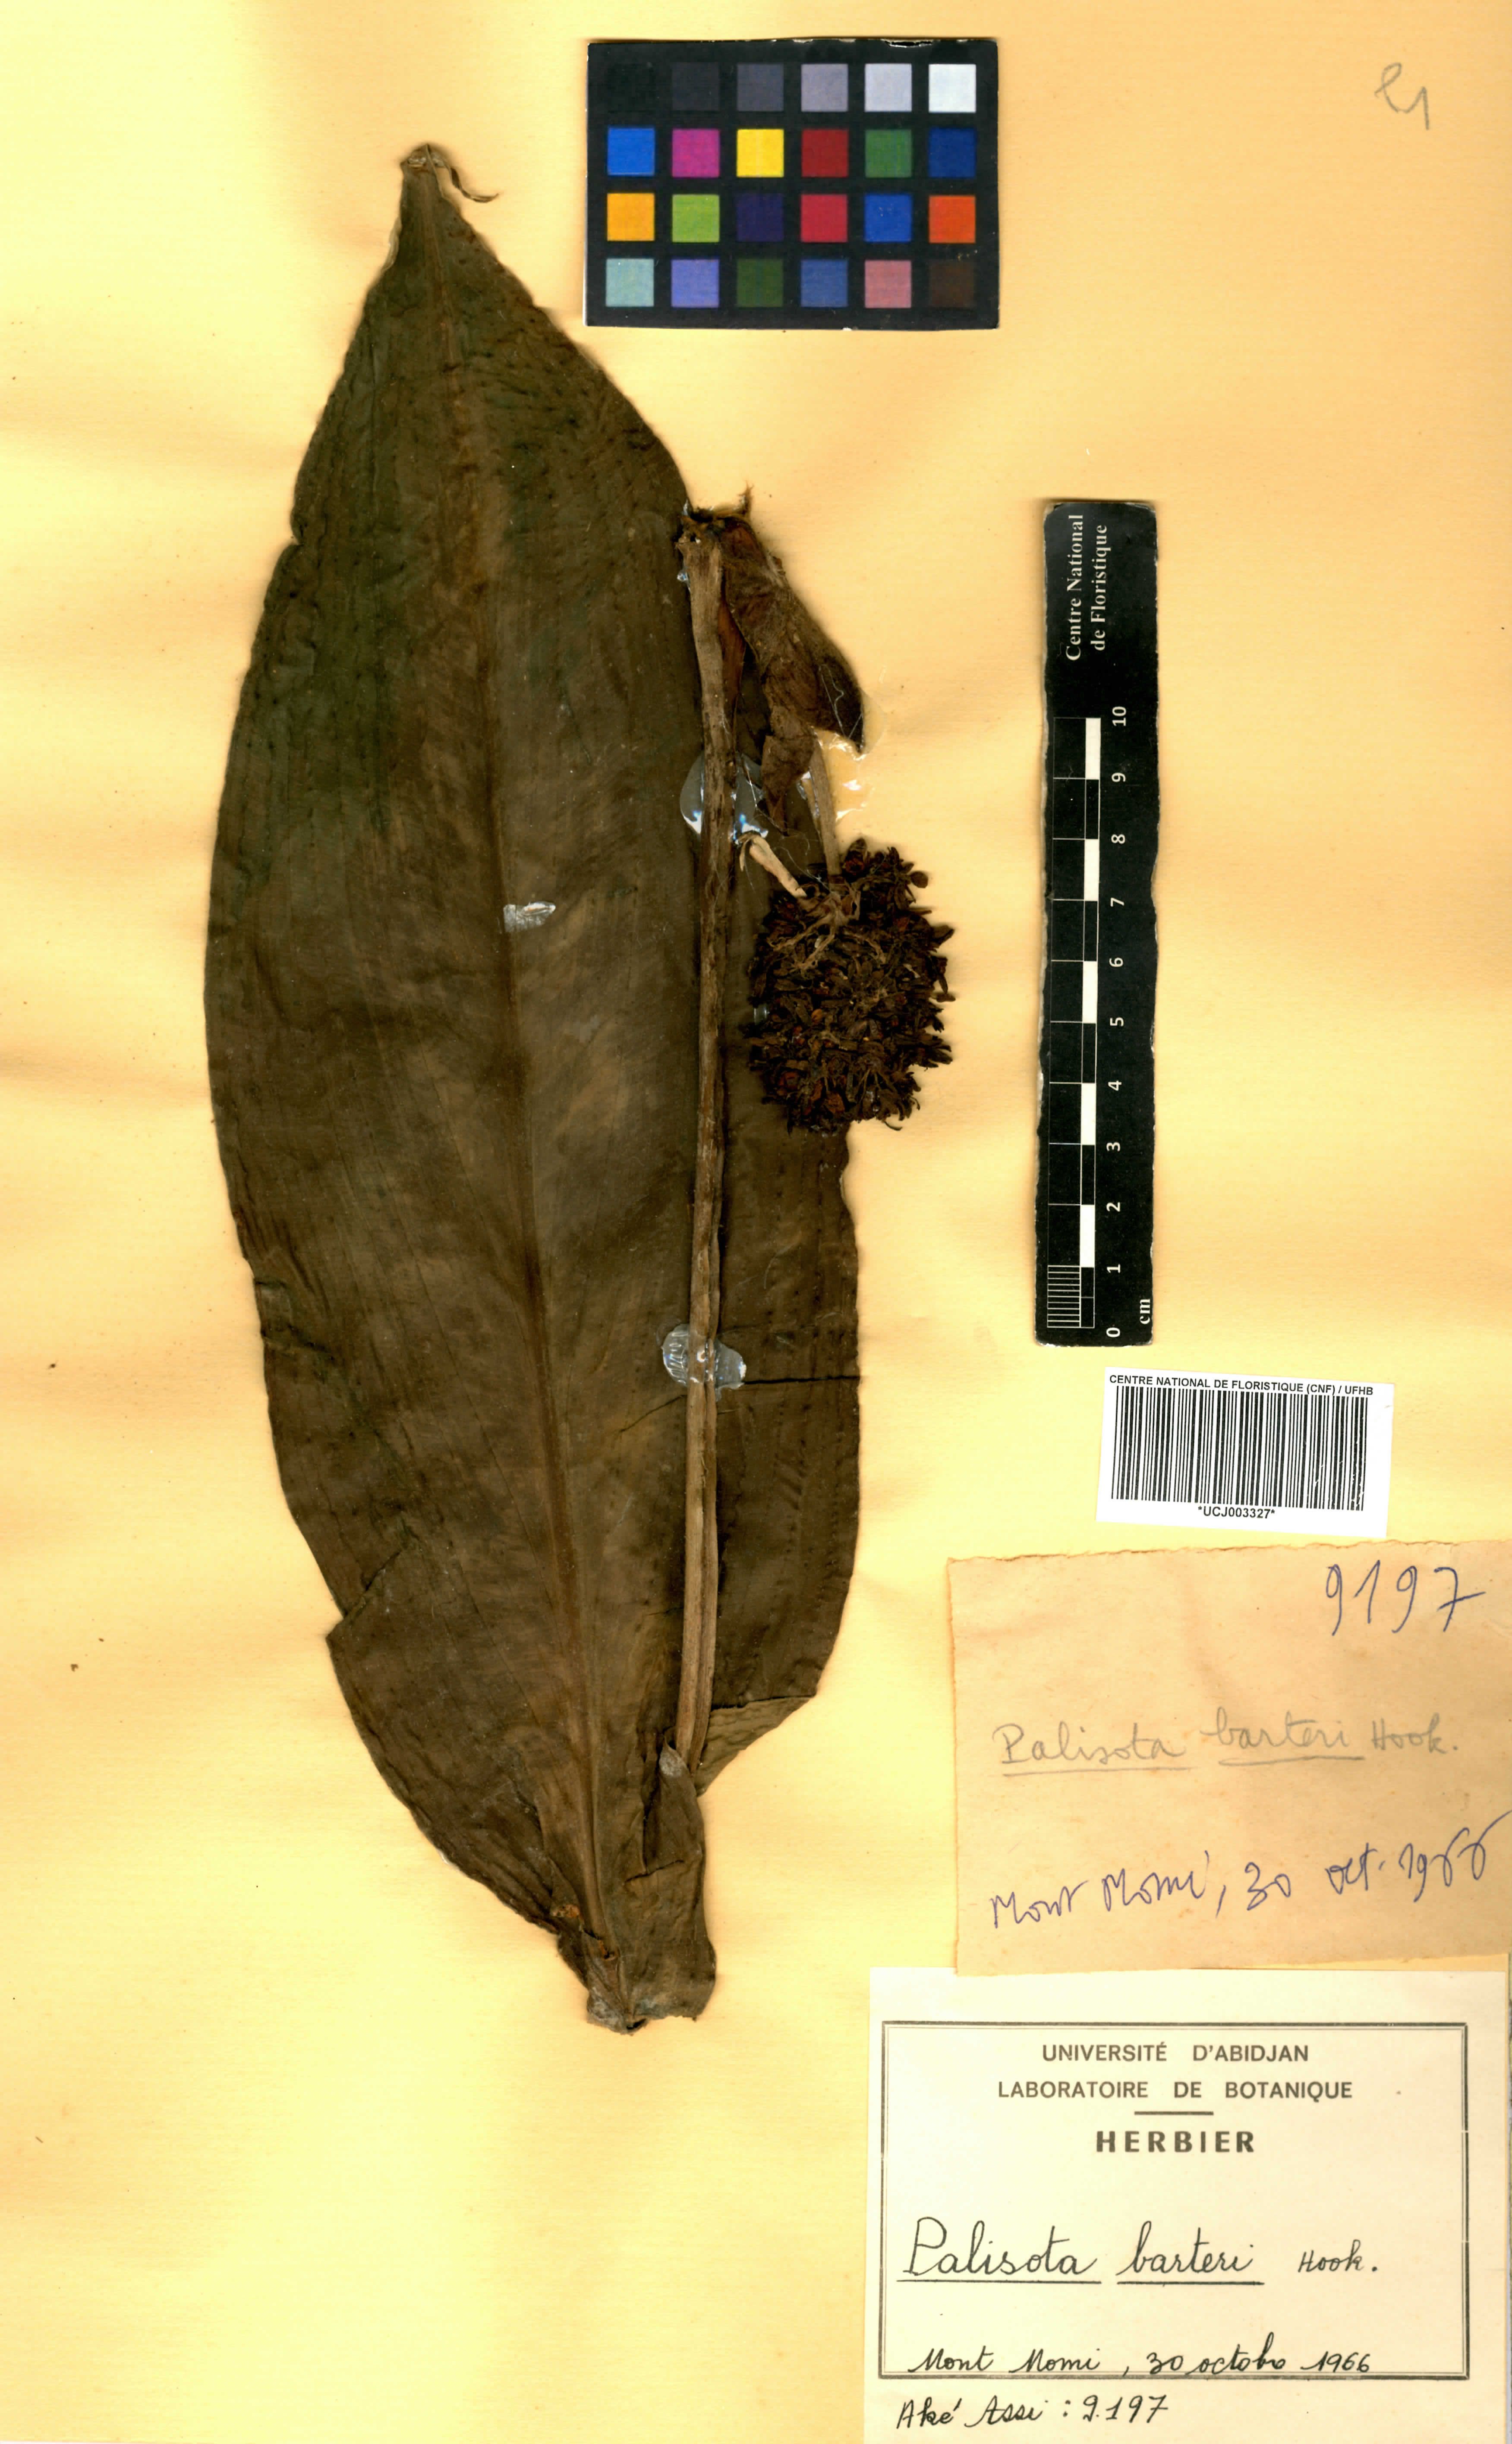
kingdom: Plantae
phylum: Tracheophyta
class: Liliopsida
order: Commelinales
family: Commelinaceae
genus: Palisota
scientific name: Palisota barteri
